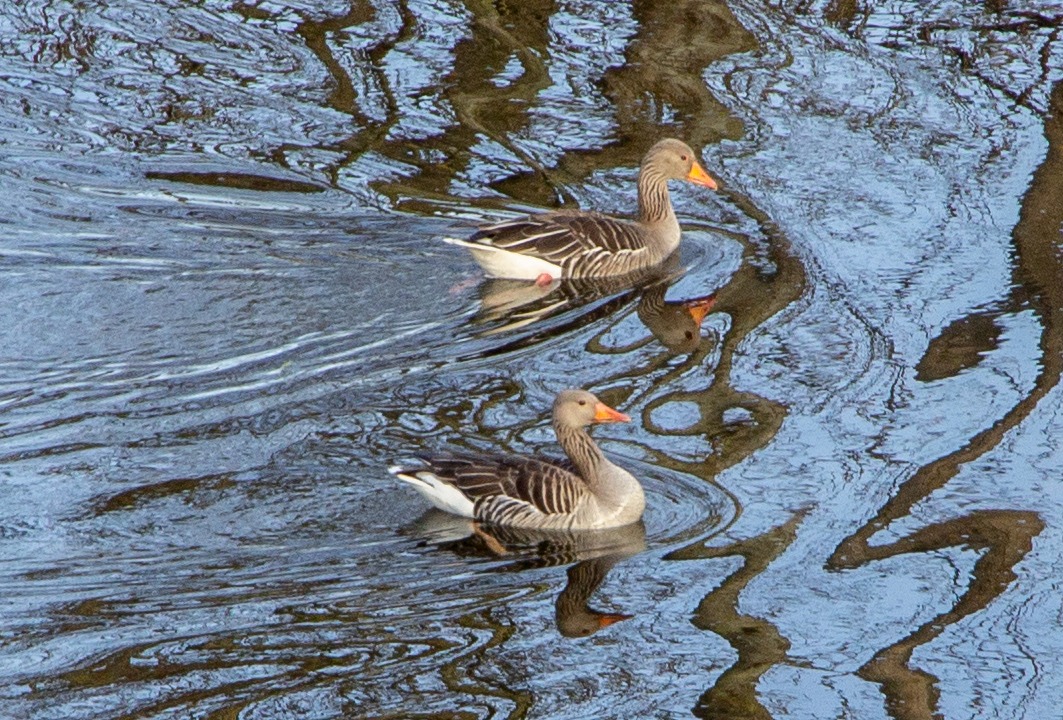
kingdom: Animalia
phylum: Chordata
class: Aves
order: Anseriformes
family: Anatidae
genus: Anser
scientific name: Anser anser
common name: Grågås
